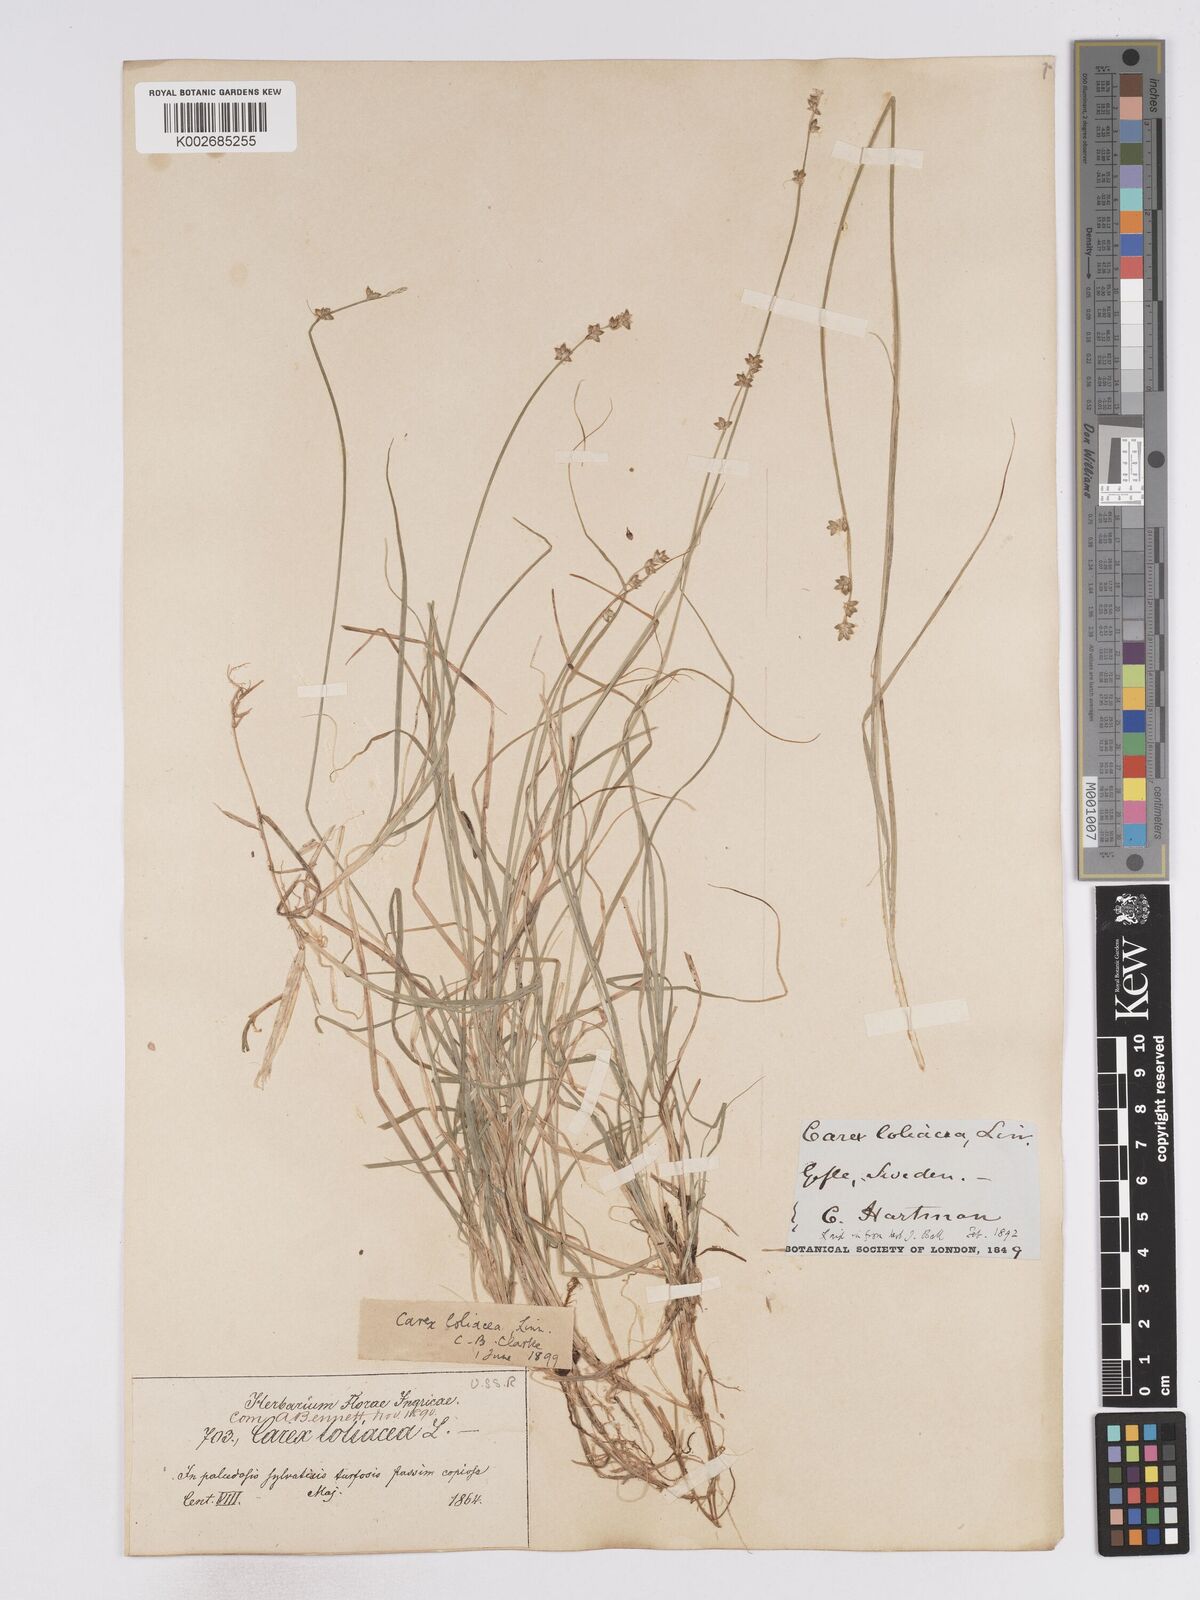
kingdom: Plantae
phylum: Tracheophyta
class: Liliopsida
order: Poales
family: Cyperaceae
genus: Carex
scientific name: Carex loliacea
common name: Ryegrass sedge
